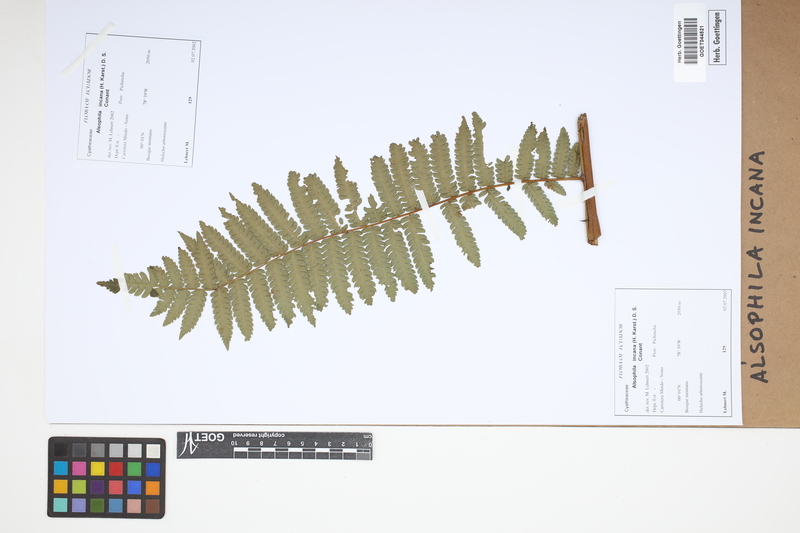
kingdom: Plantae
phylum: Tracheophyta
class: Polypodiopsida
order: Cyatheales
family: Cyatheaceae
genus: Alsophila
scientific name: Alsophila incana
